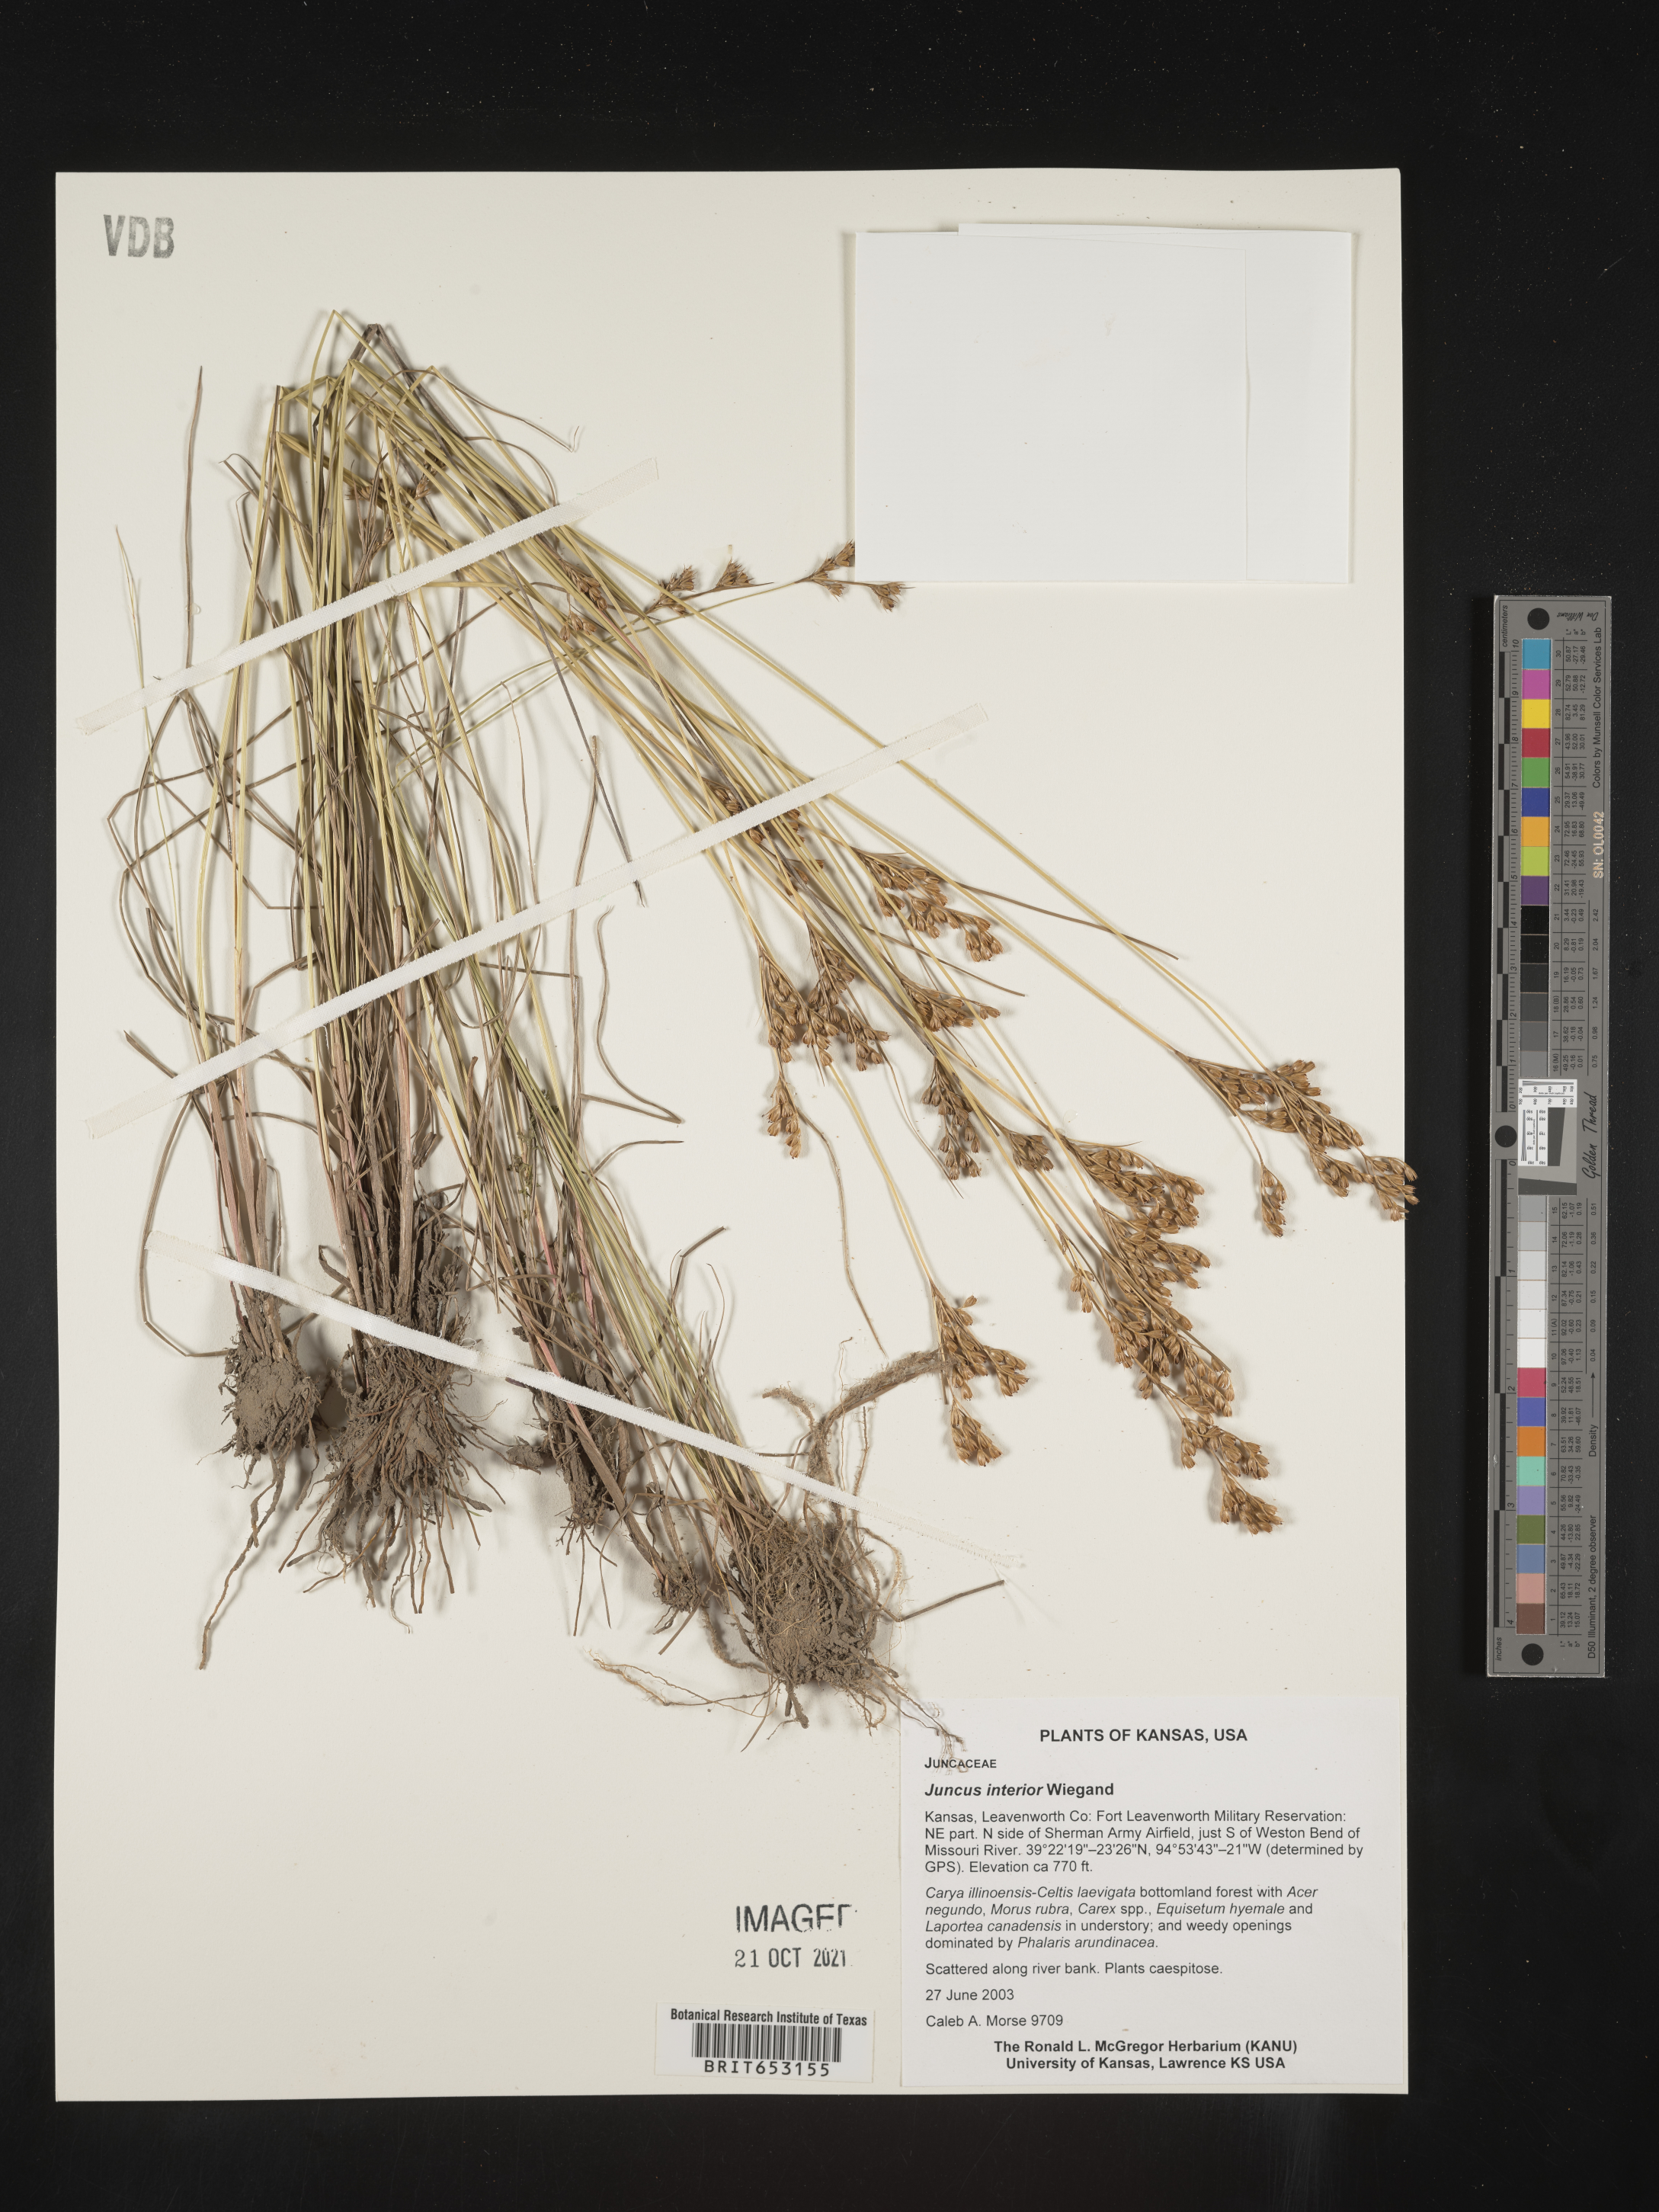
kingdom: Plantae
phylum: Tracheophyta
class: Liliopsida
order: Poales
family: Juncaceae
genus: Juncus
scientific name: Juncus interior
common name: Interior rush
